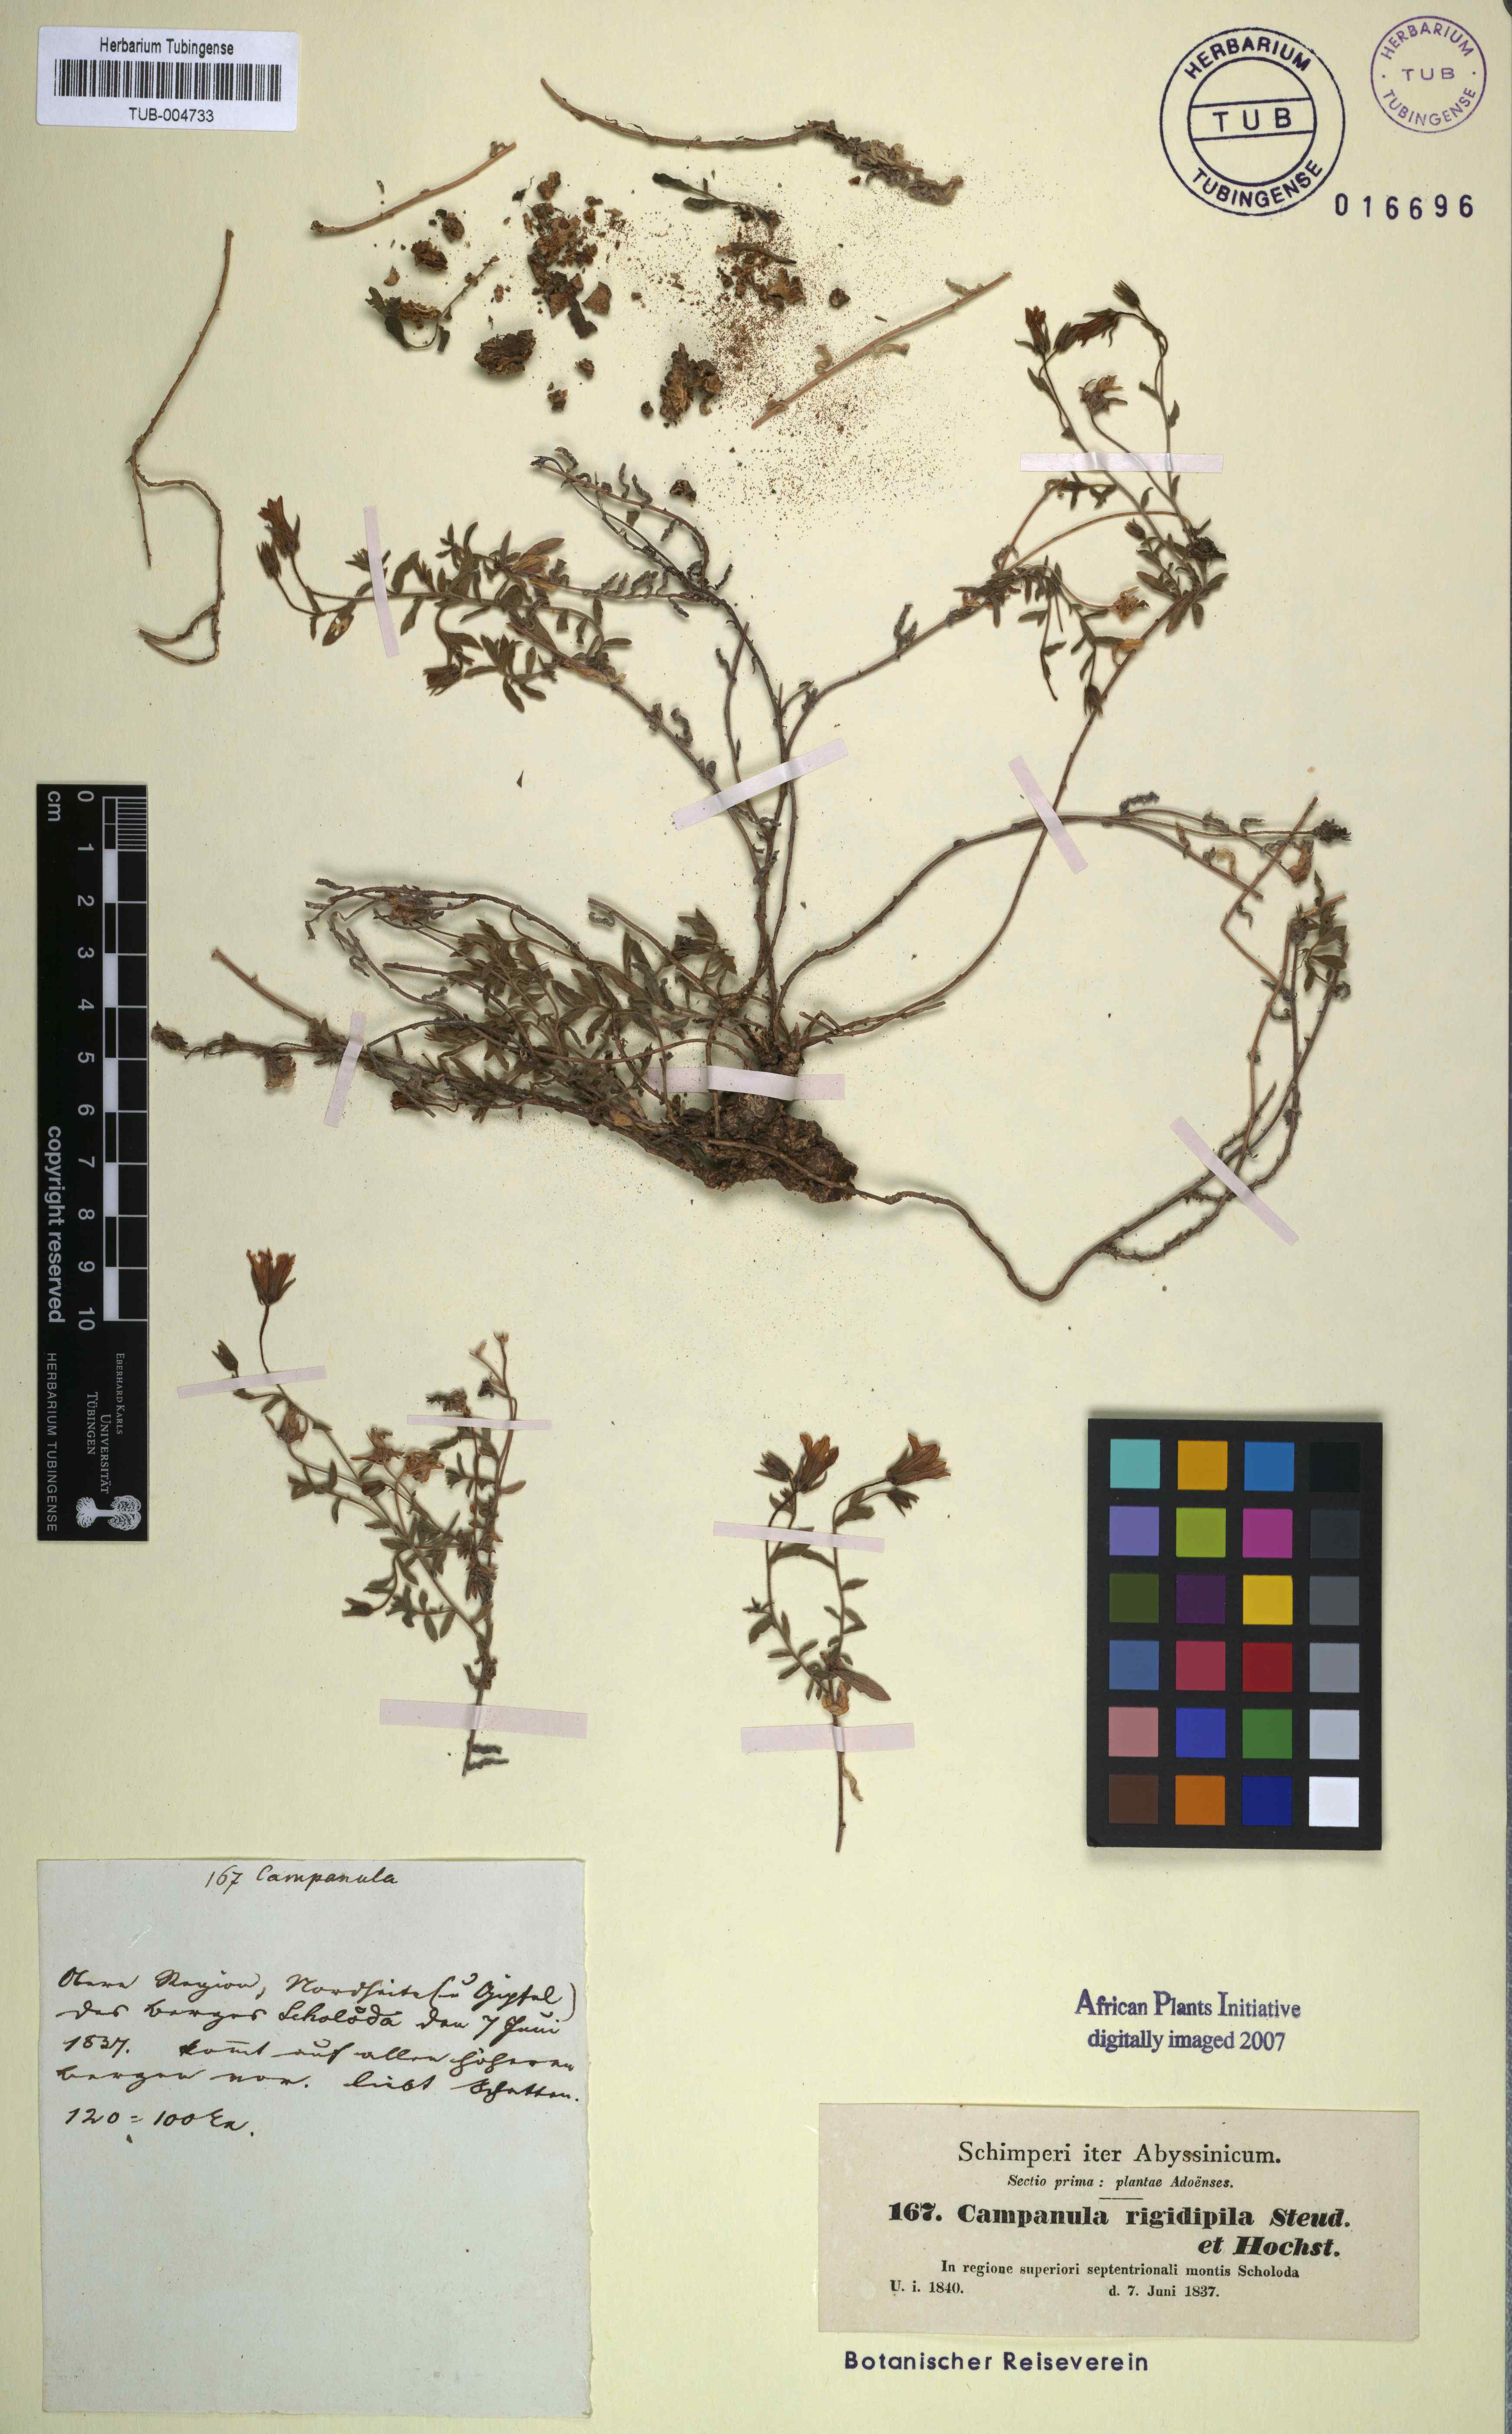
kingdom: Plantae
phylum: Tracheophyta
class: Magnoliopsida
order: Asterales
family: Campanulaceae
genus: Campanula
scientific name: Campanula edulis
